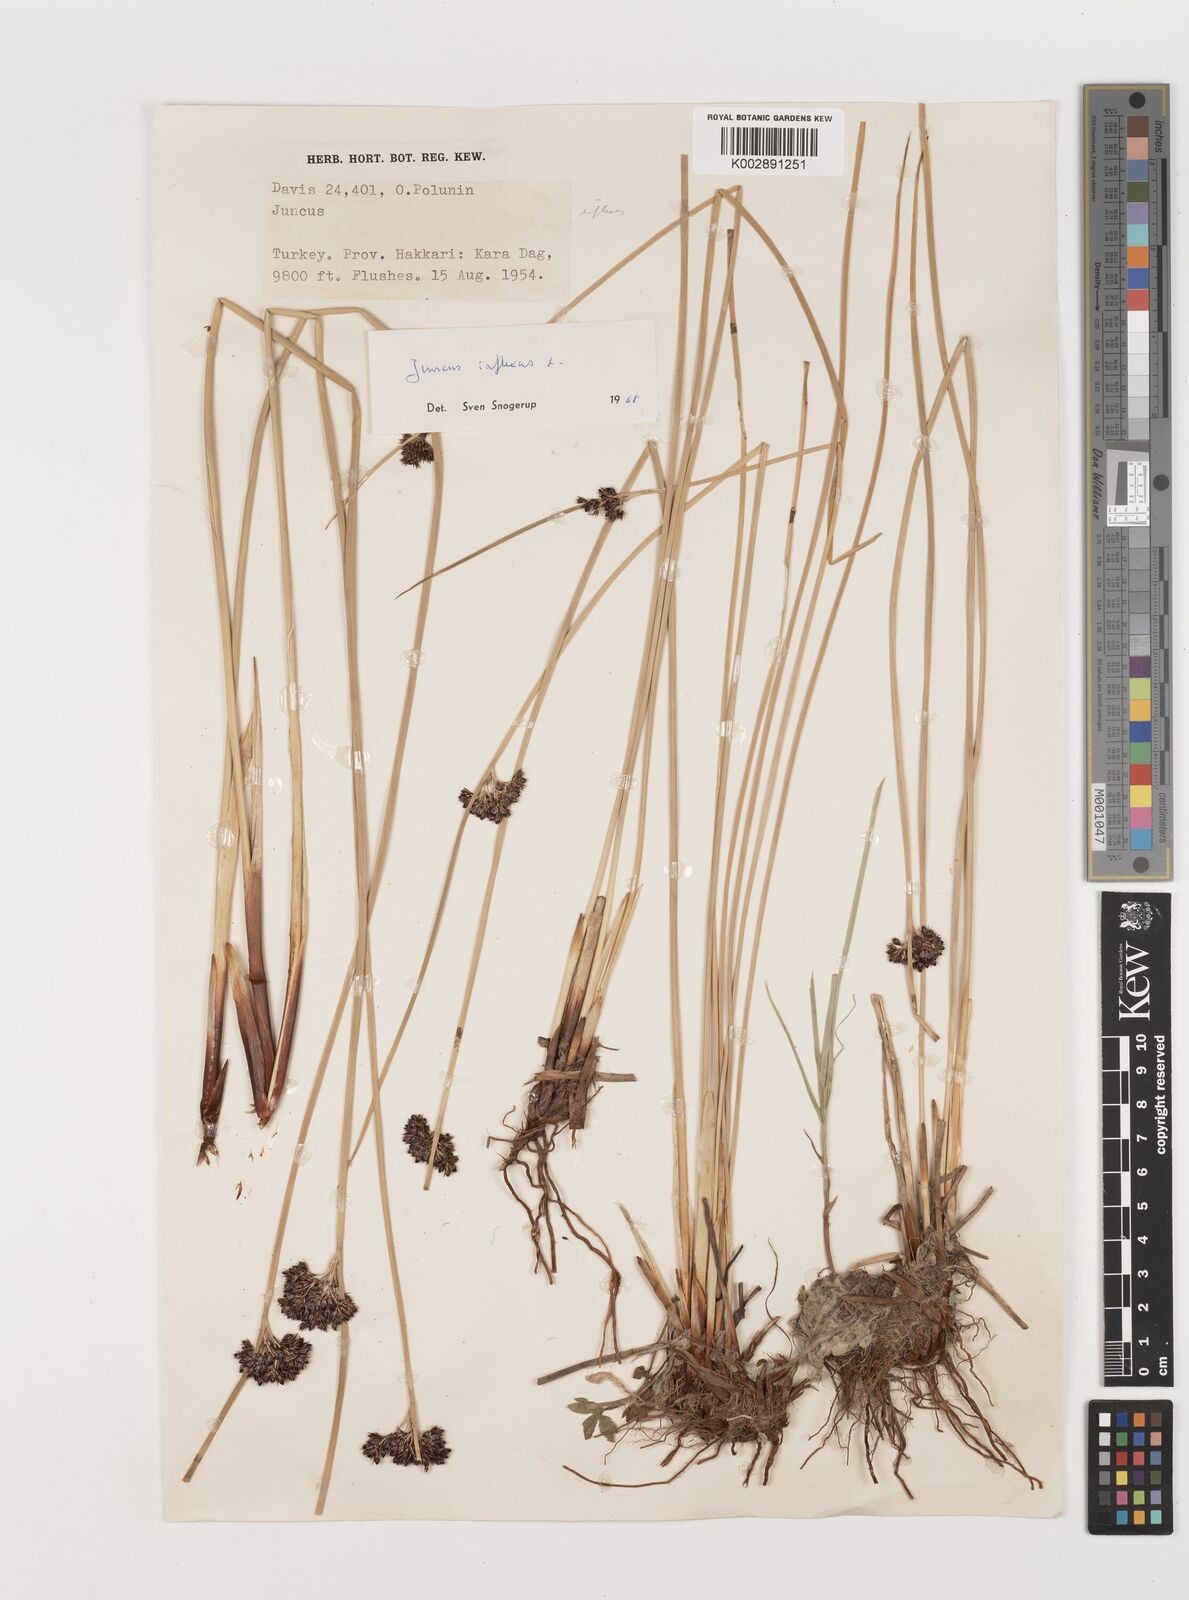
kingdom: Plantae
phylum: Tracheophyta
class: Liliopsida
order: Poales
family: Juncaceae
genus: Juncus
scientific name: Juncus inflexus
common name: Hard rush
